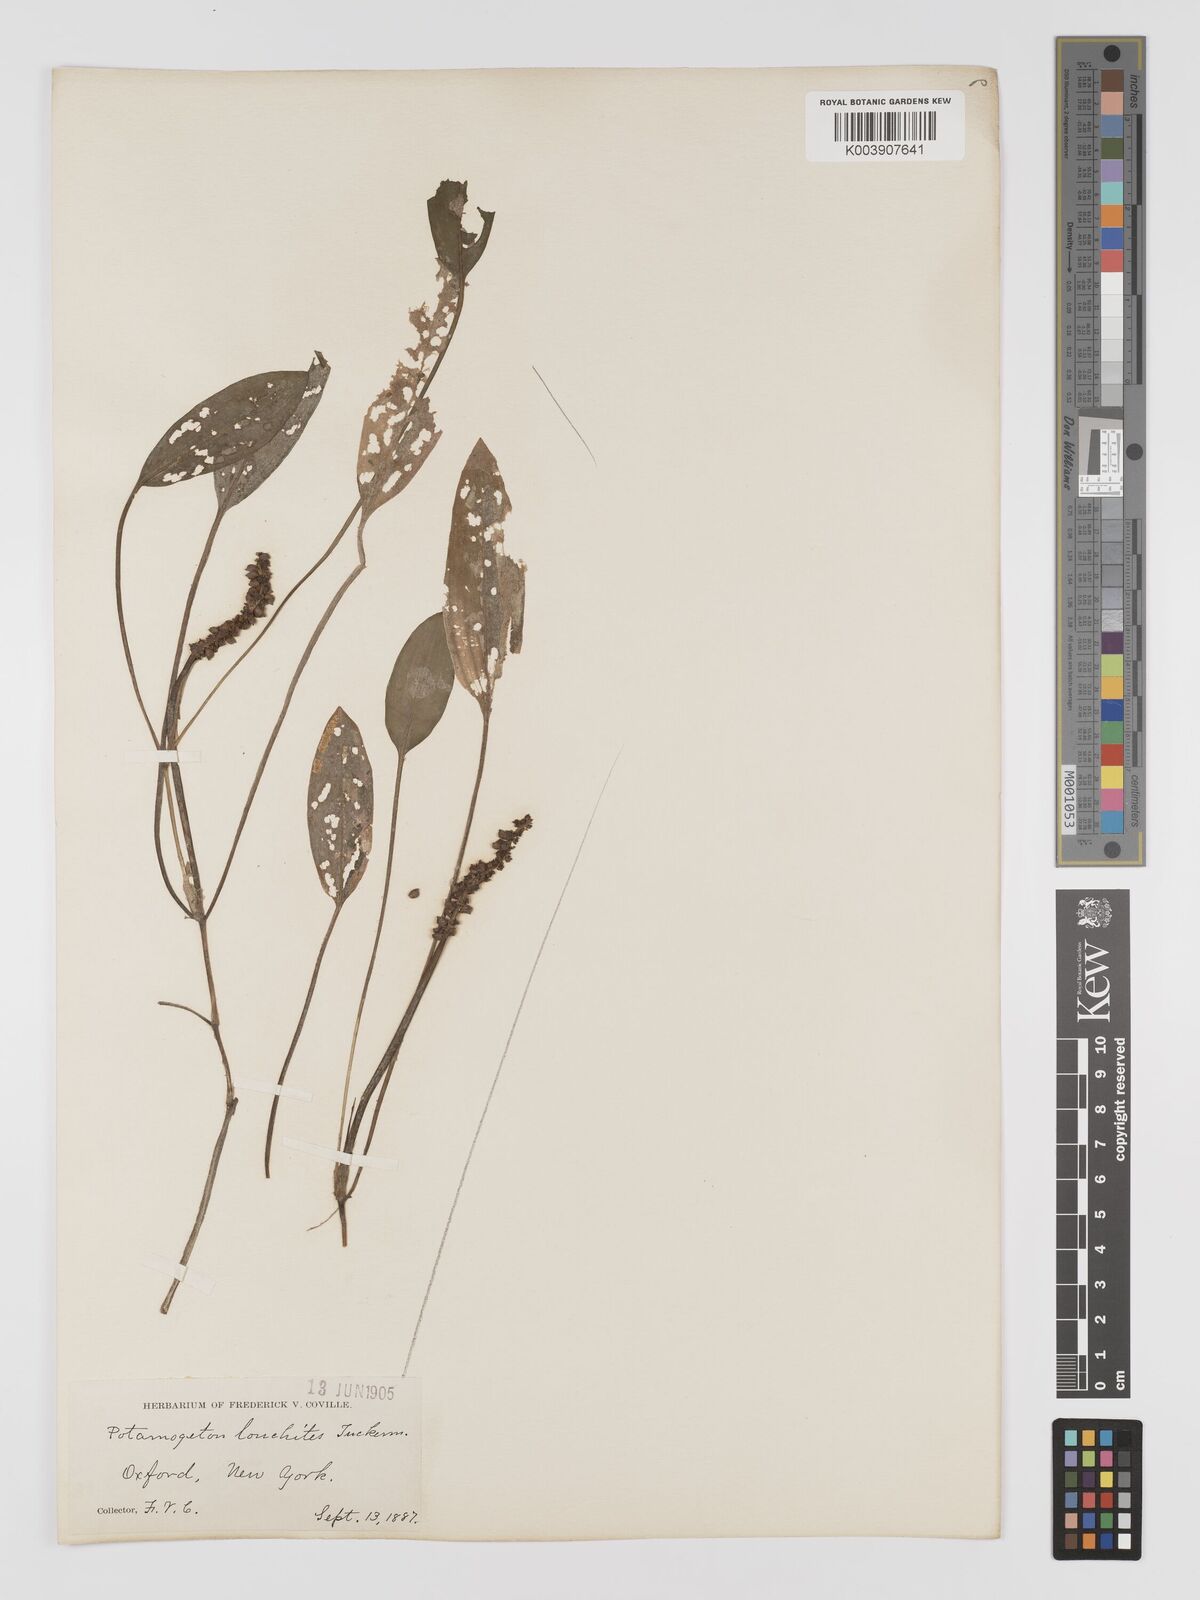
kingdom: Plantae
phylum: Tracheophyta
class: Liliopsida
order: Alismatales
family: Potamogetonaceae
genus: Potamogeton
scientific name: Potamogeton nodosus
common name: Loddon pondweed
